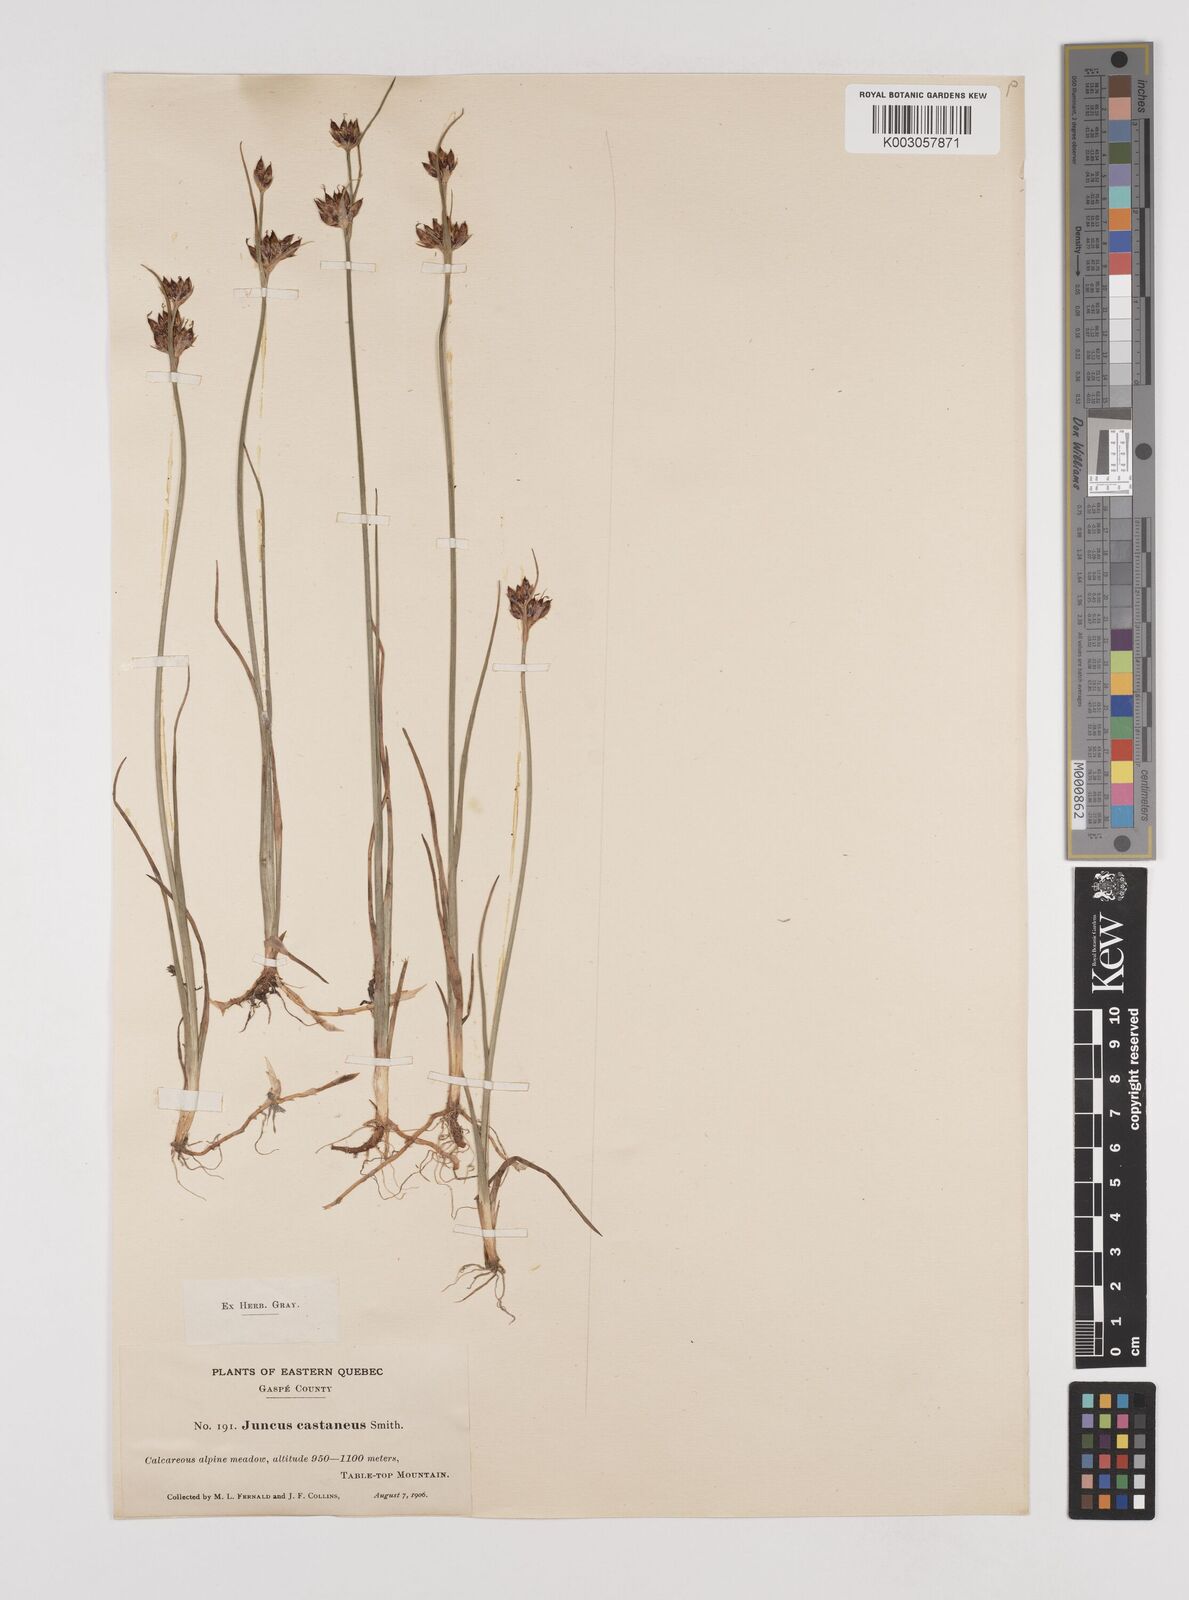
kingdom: Plantae
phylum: Tracheophyta
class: Liliopsida
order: Poales
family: Juncaceae
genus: Juncus
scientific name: Juncus castaneus
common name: Chestnut rush
